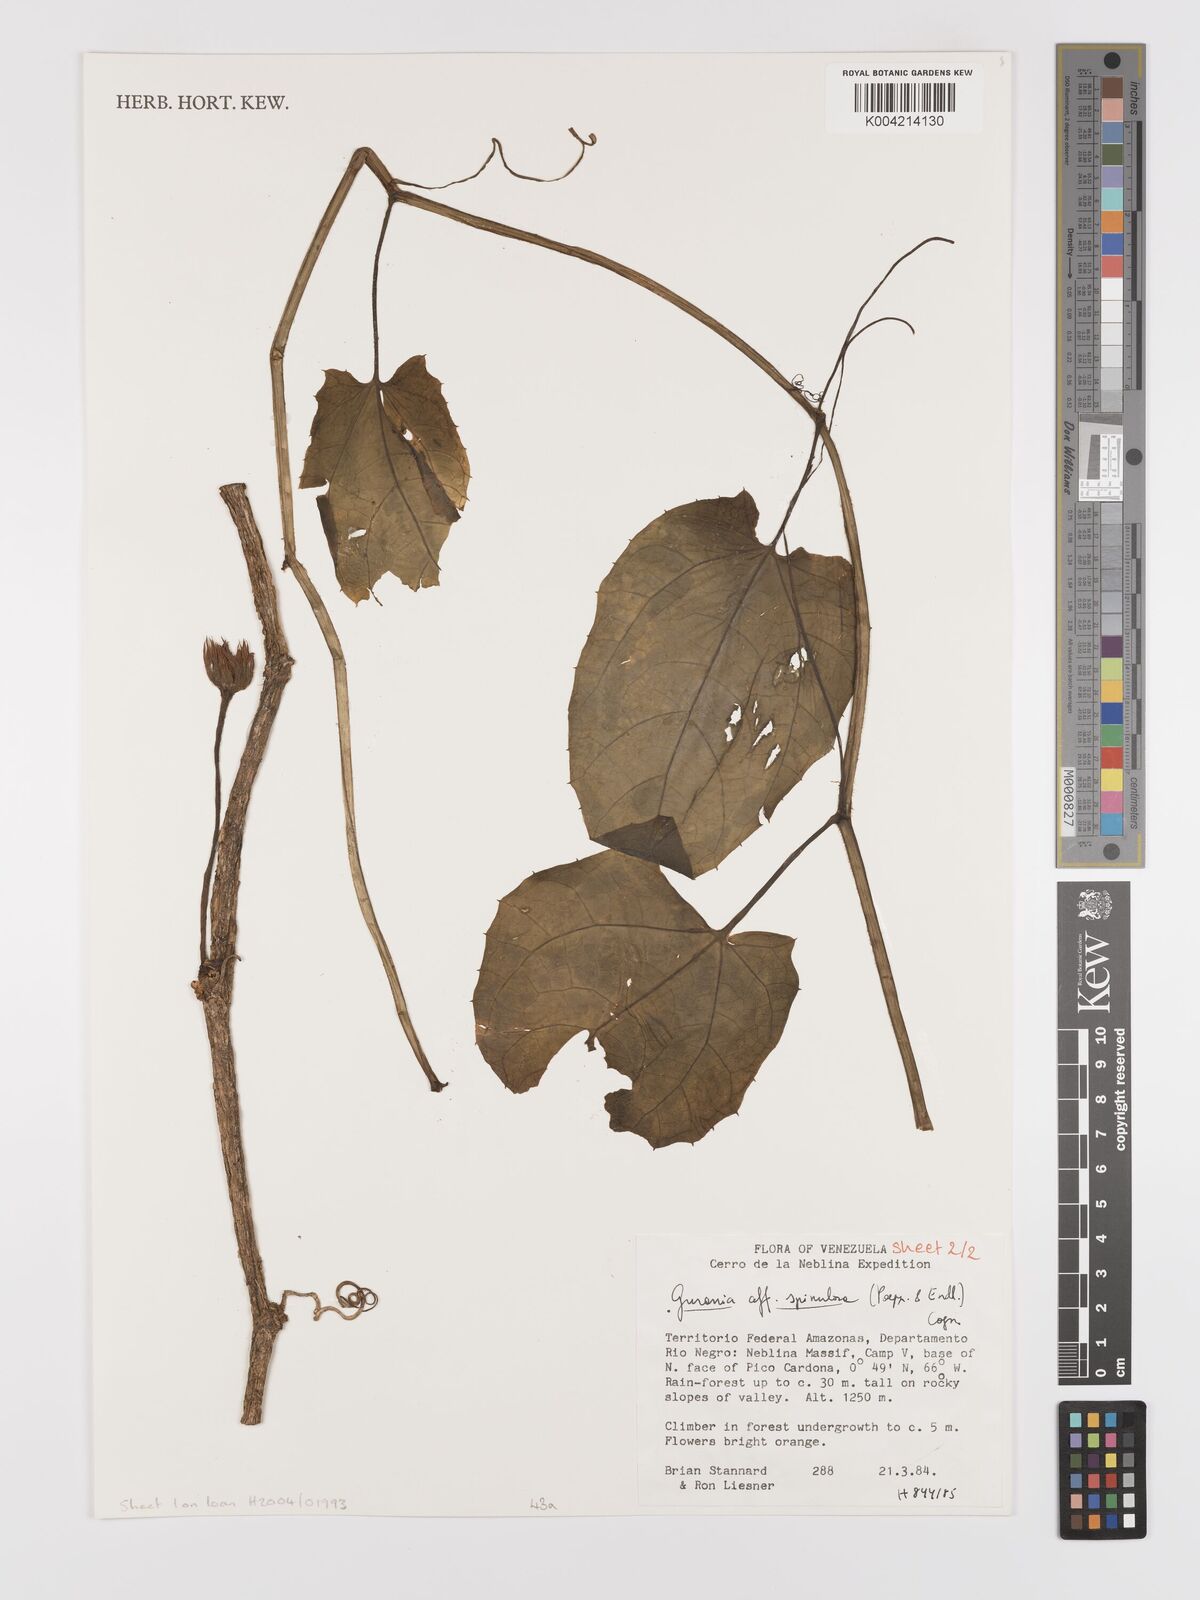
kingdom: Plantae
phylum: Tracheophyta
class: Magnoliopsida
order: Cucurbitales
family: Cucurbitaceae
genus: Gurania
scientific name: Gurania lobata
